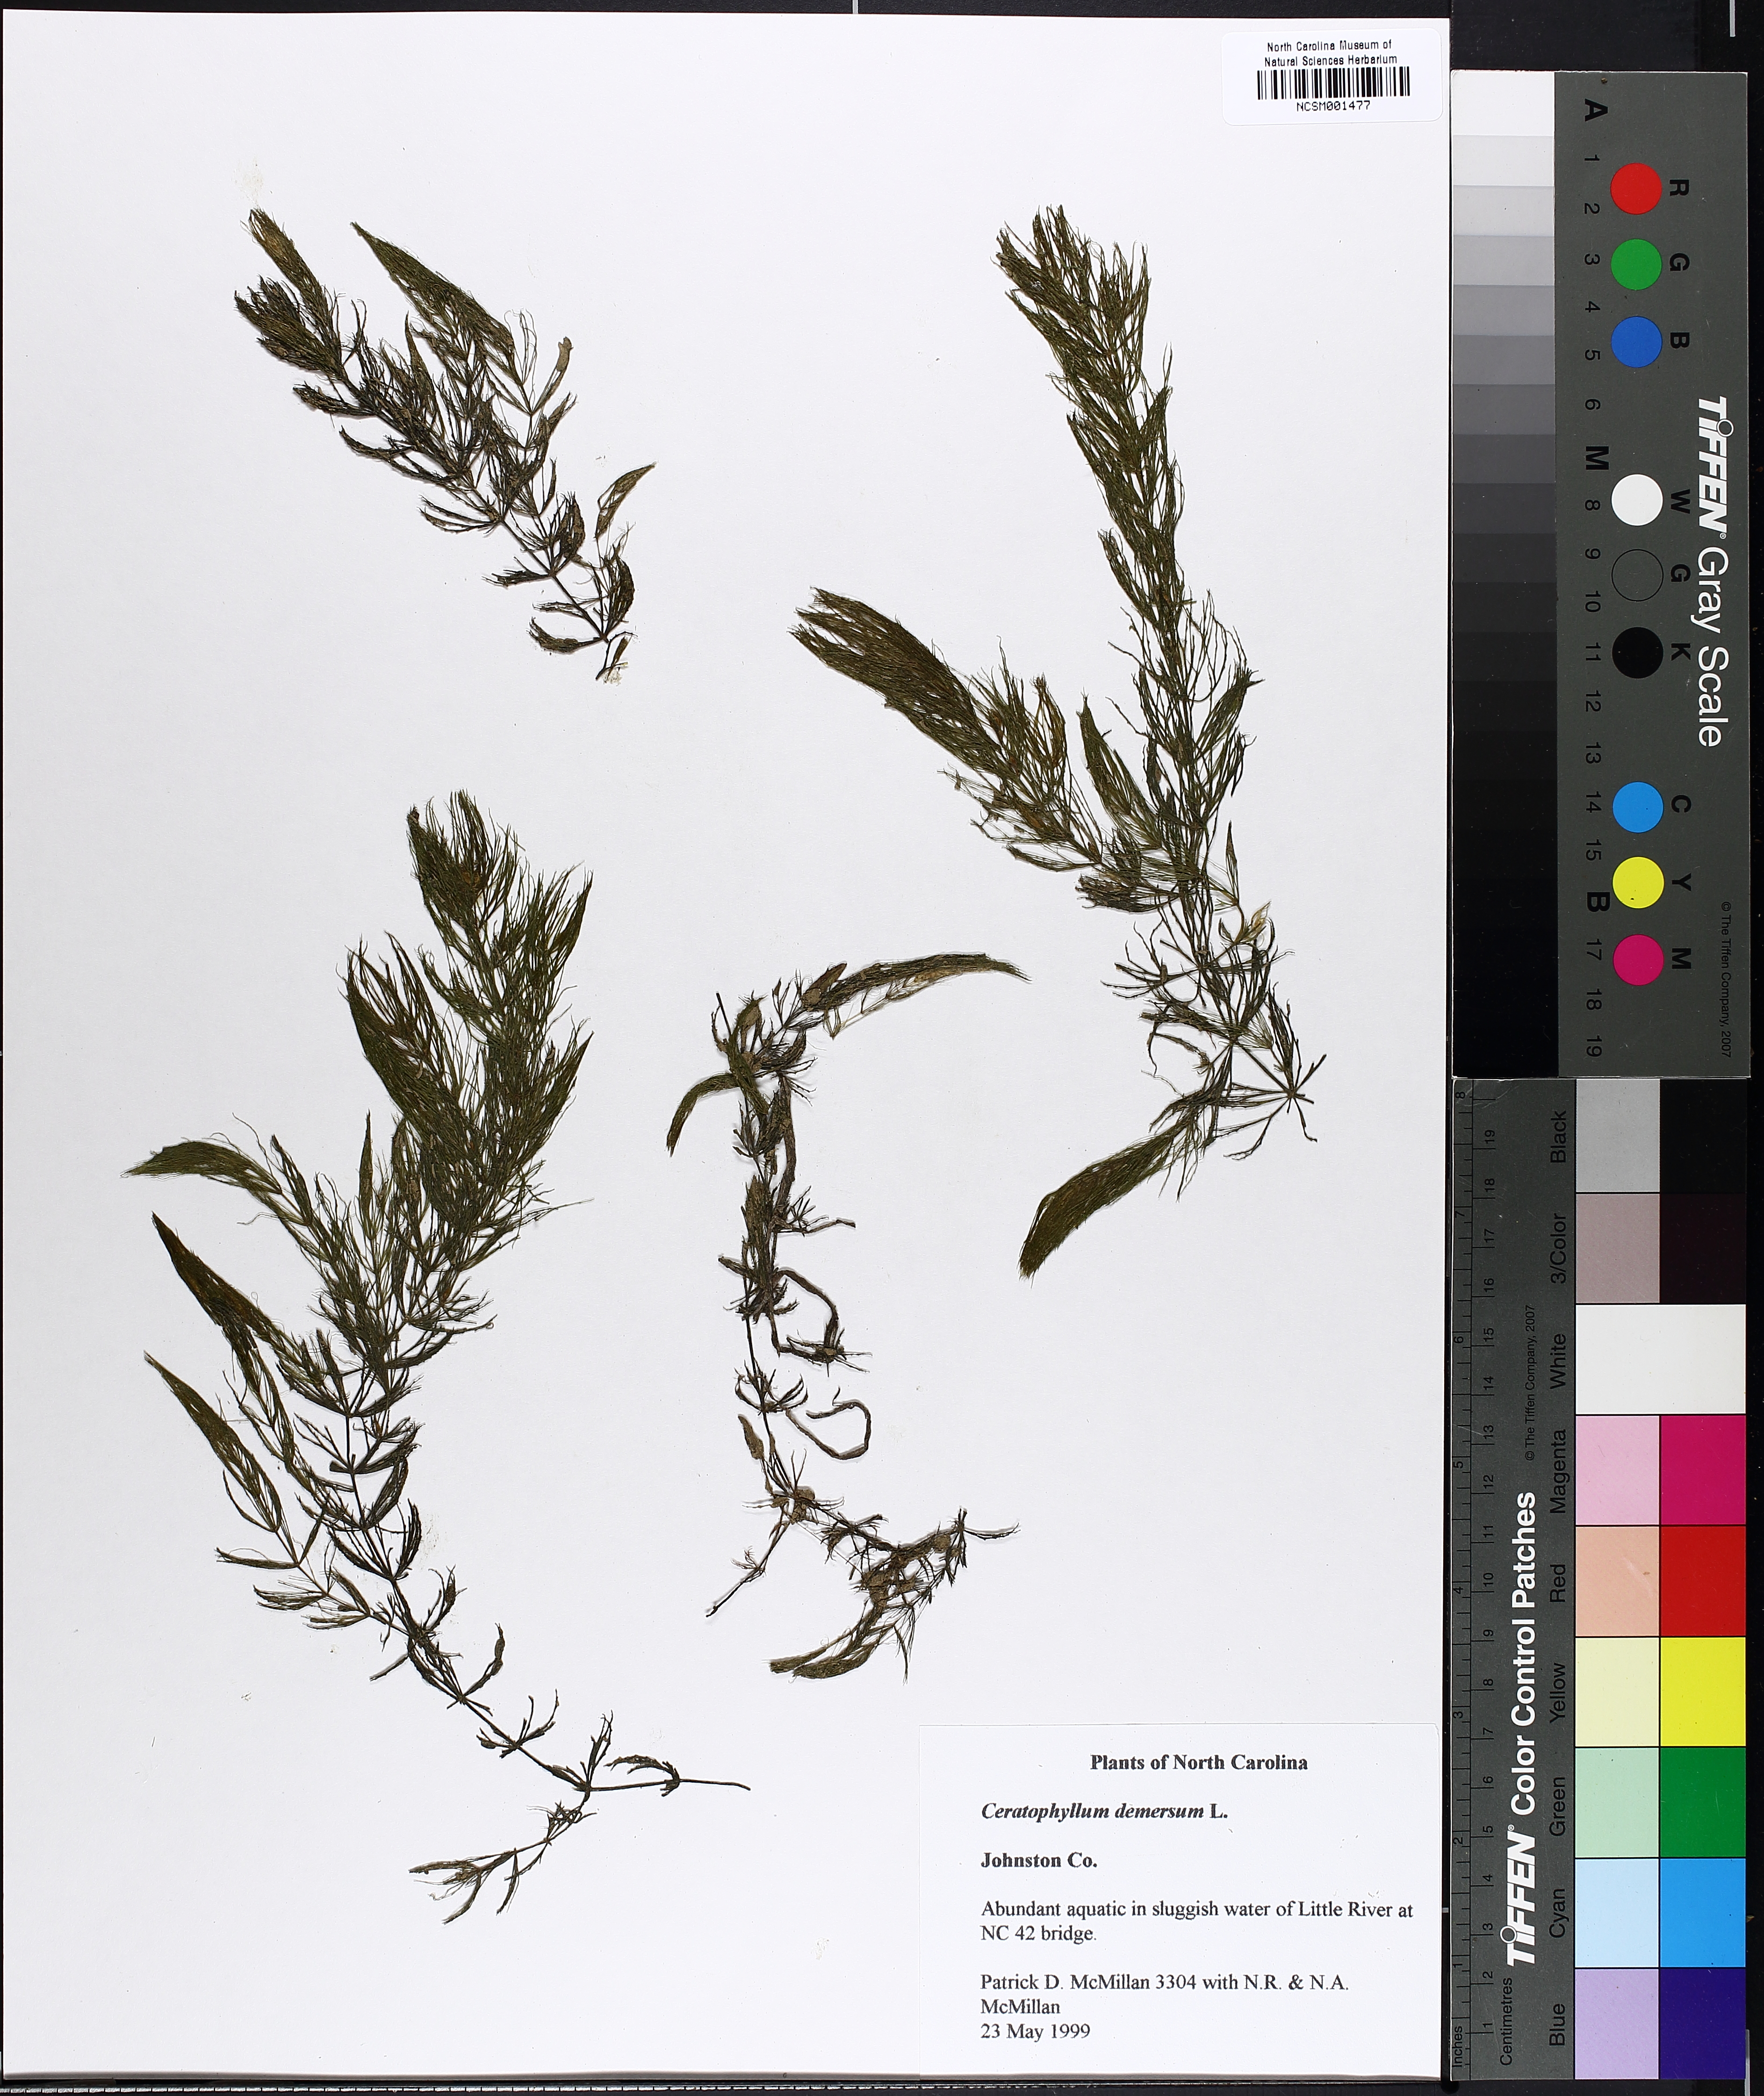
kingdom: Plantae
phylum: Tracheophyta
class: Magnoliopsida
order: Ceratophyllales
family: Ceratophyllaceae
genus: Ceratophyllum
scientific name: Ceratophyllum demersum
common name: Rigid hornwort
